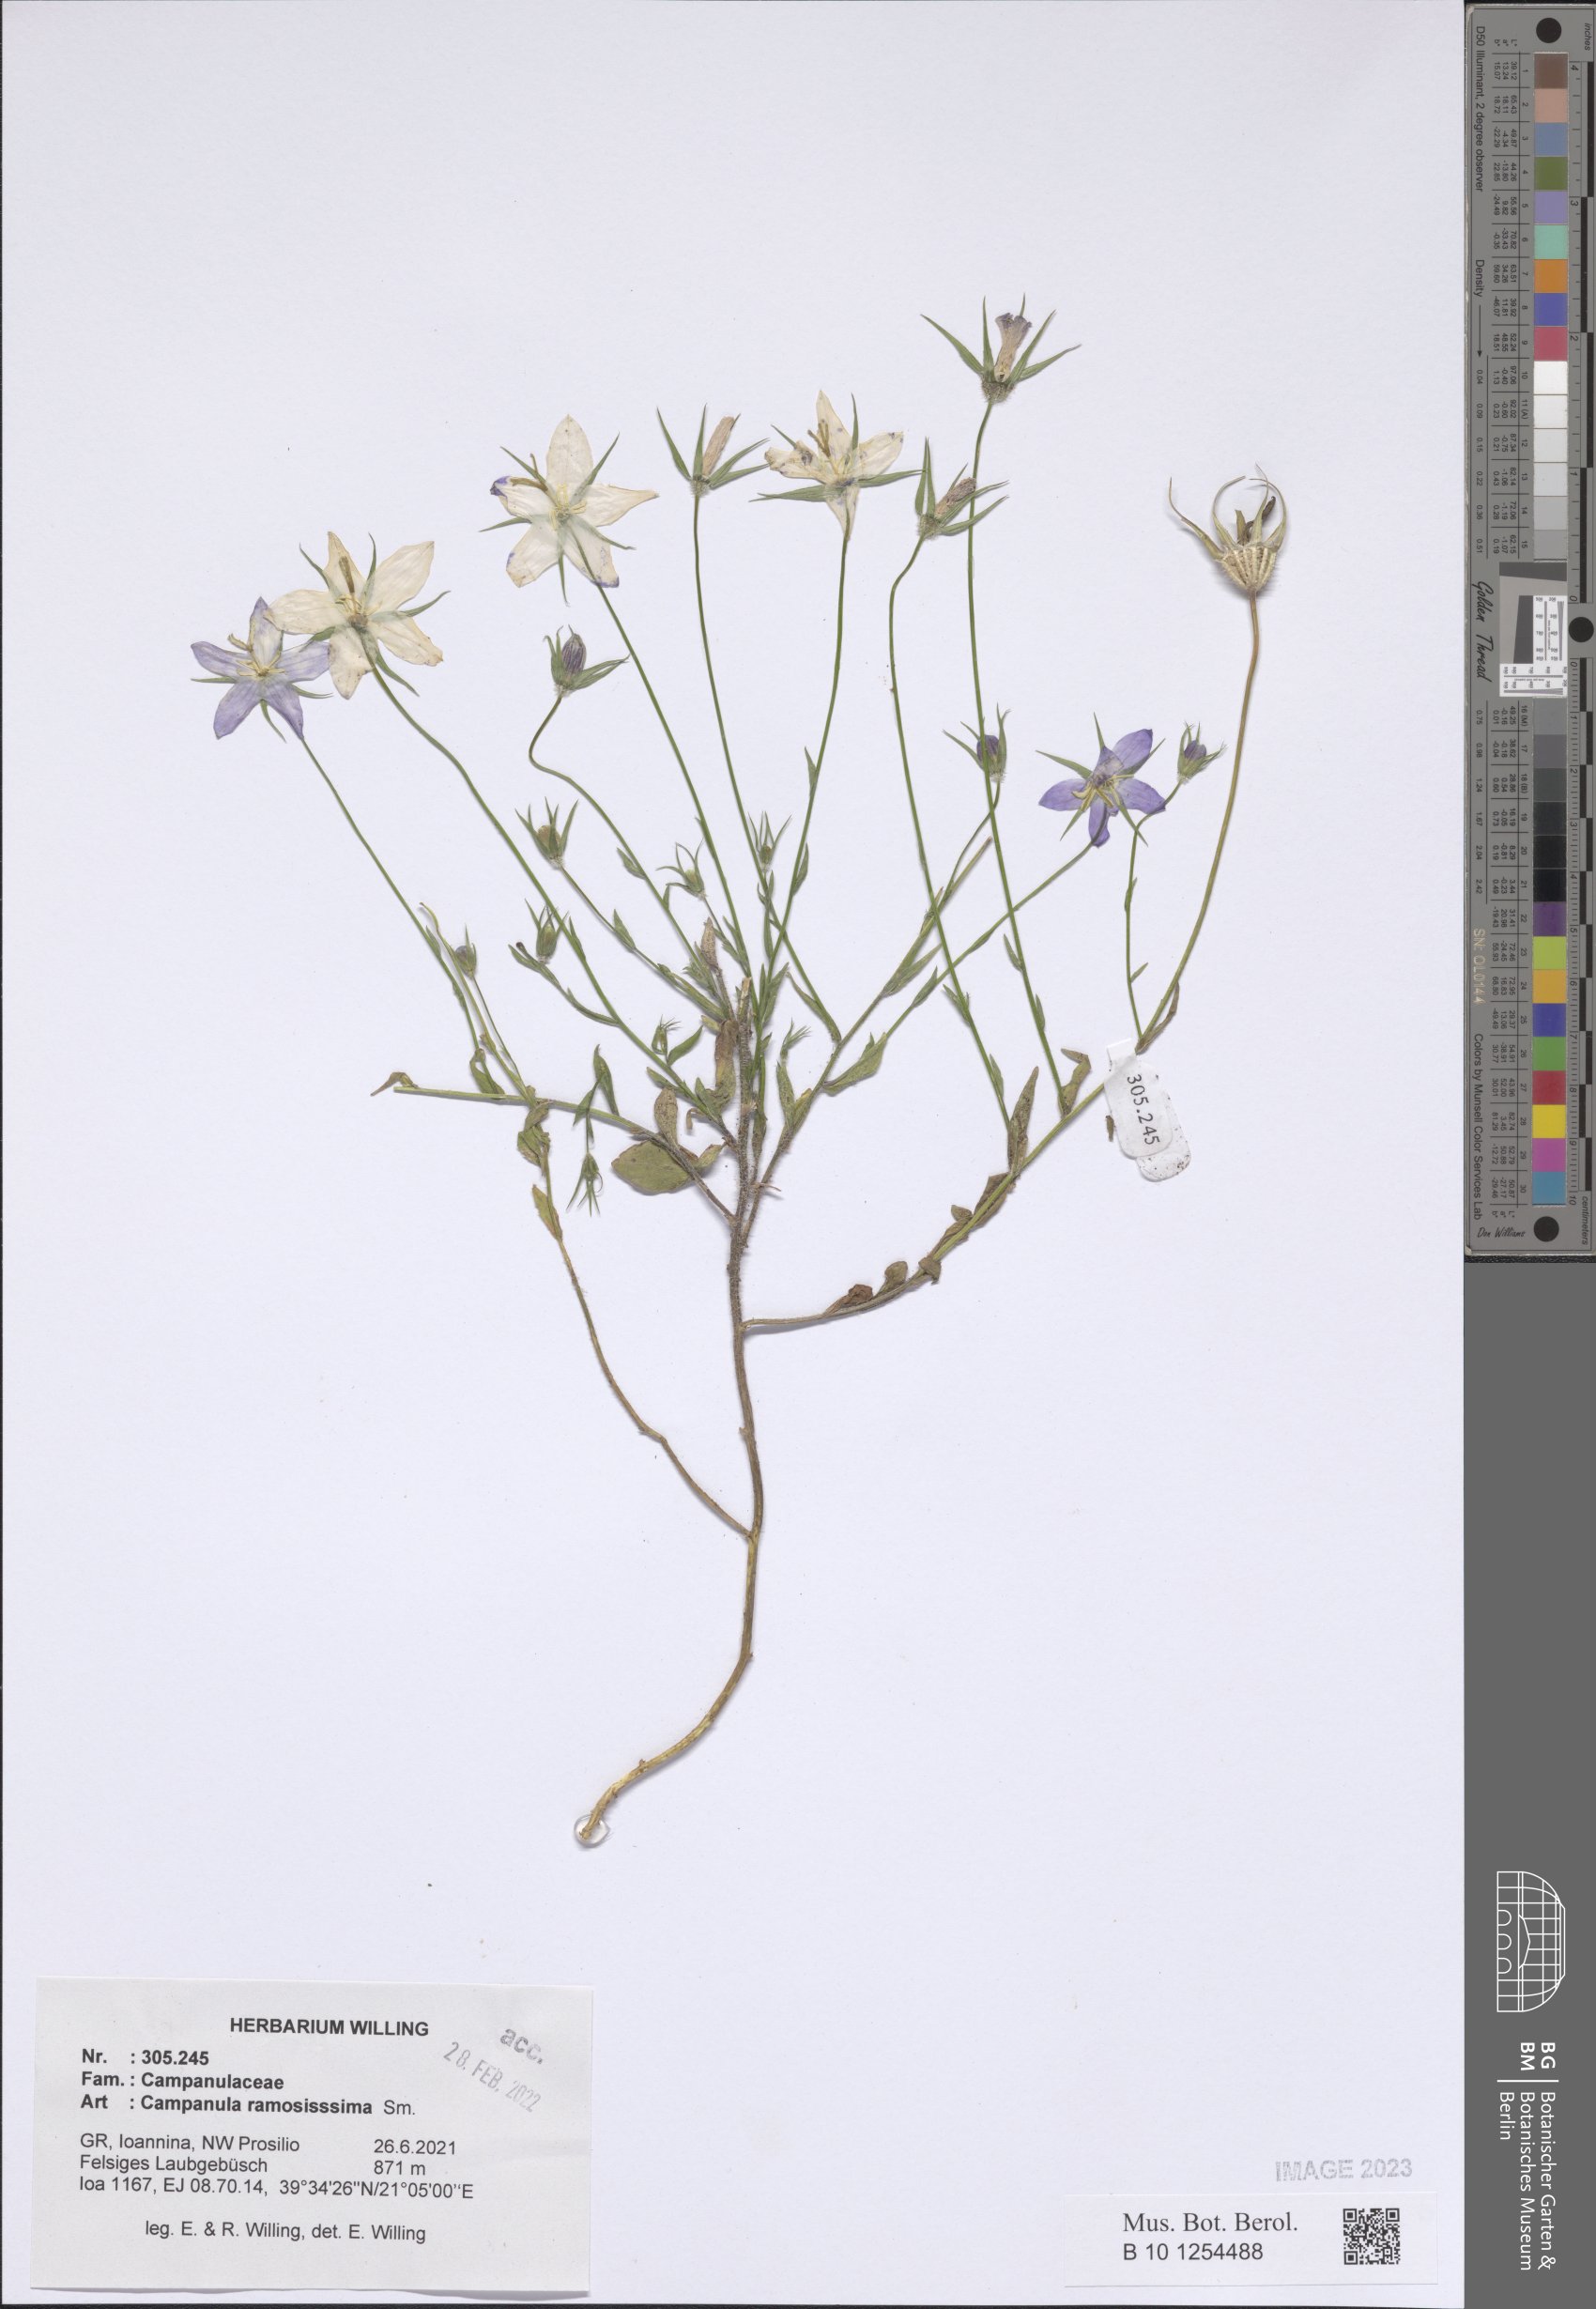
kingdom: Plantae
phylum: Tracheophyta
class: Magnoliopsida
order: Asterales
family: Campanulaceae
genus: Campanula
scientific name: Campanula ramosissima
